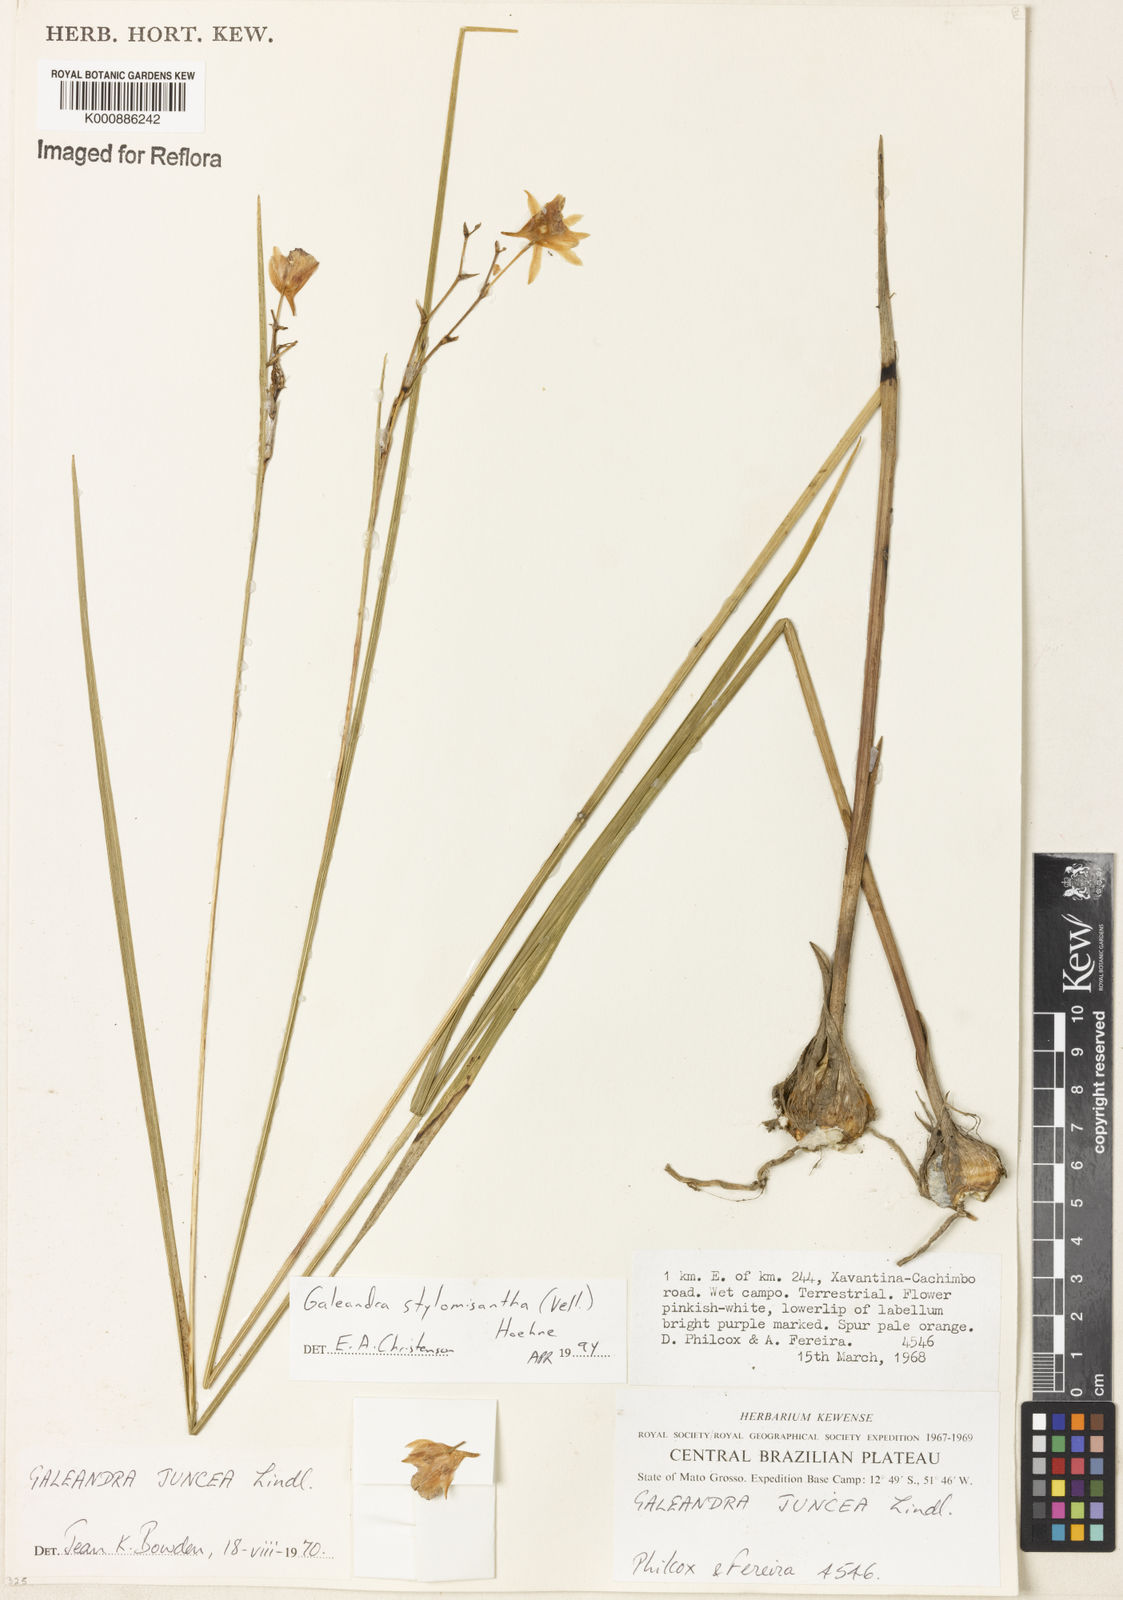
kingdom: Plantae
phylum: Tracheophyta
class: Liliopsida
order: Asparagales
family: Orchidaceae
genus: Galeandra
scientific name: Galeandra styllomisantha
